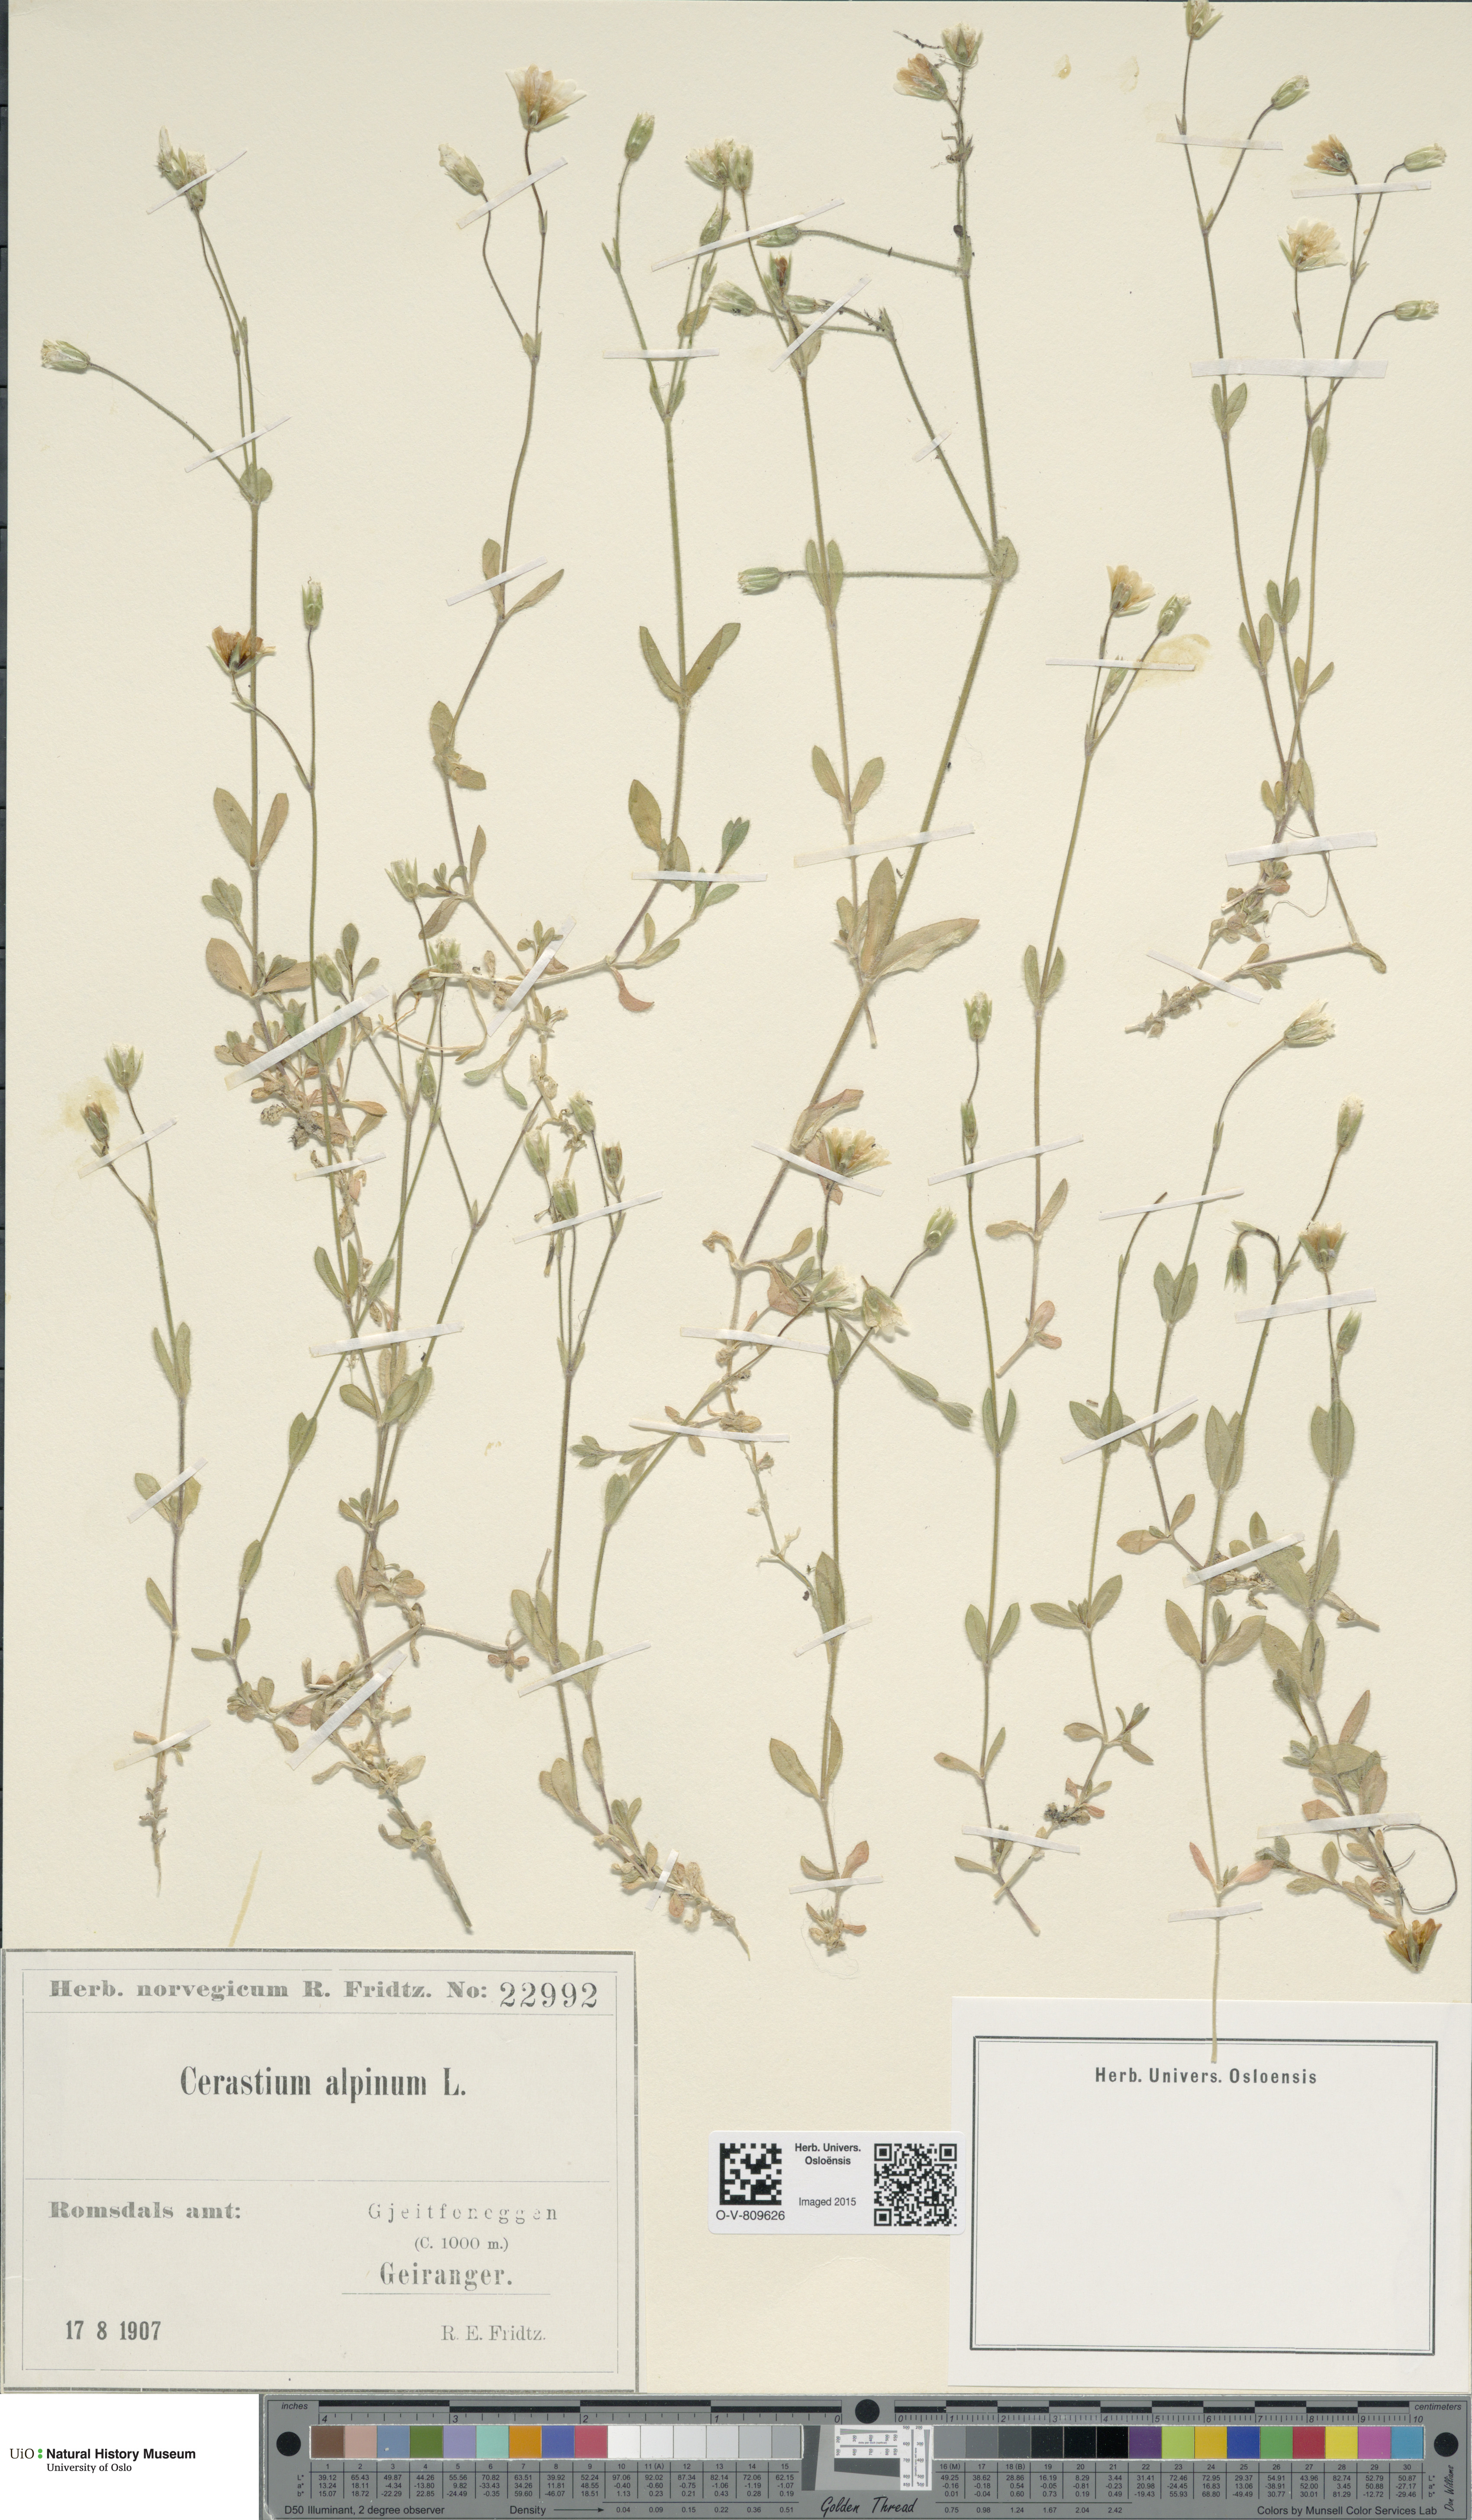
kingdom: Plantae
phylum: Tracheophyta
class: Magnoliopsida
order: Caryophyllales
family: Caryophyllaceae
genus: Cerastium
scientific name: Cerastium alpinum
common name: Alpine mouse-ear
